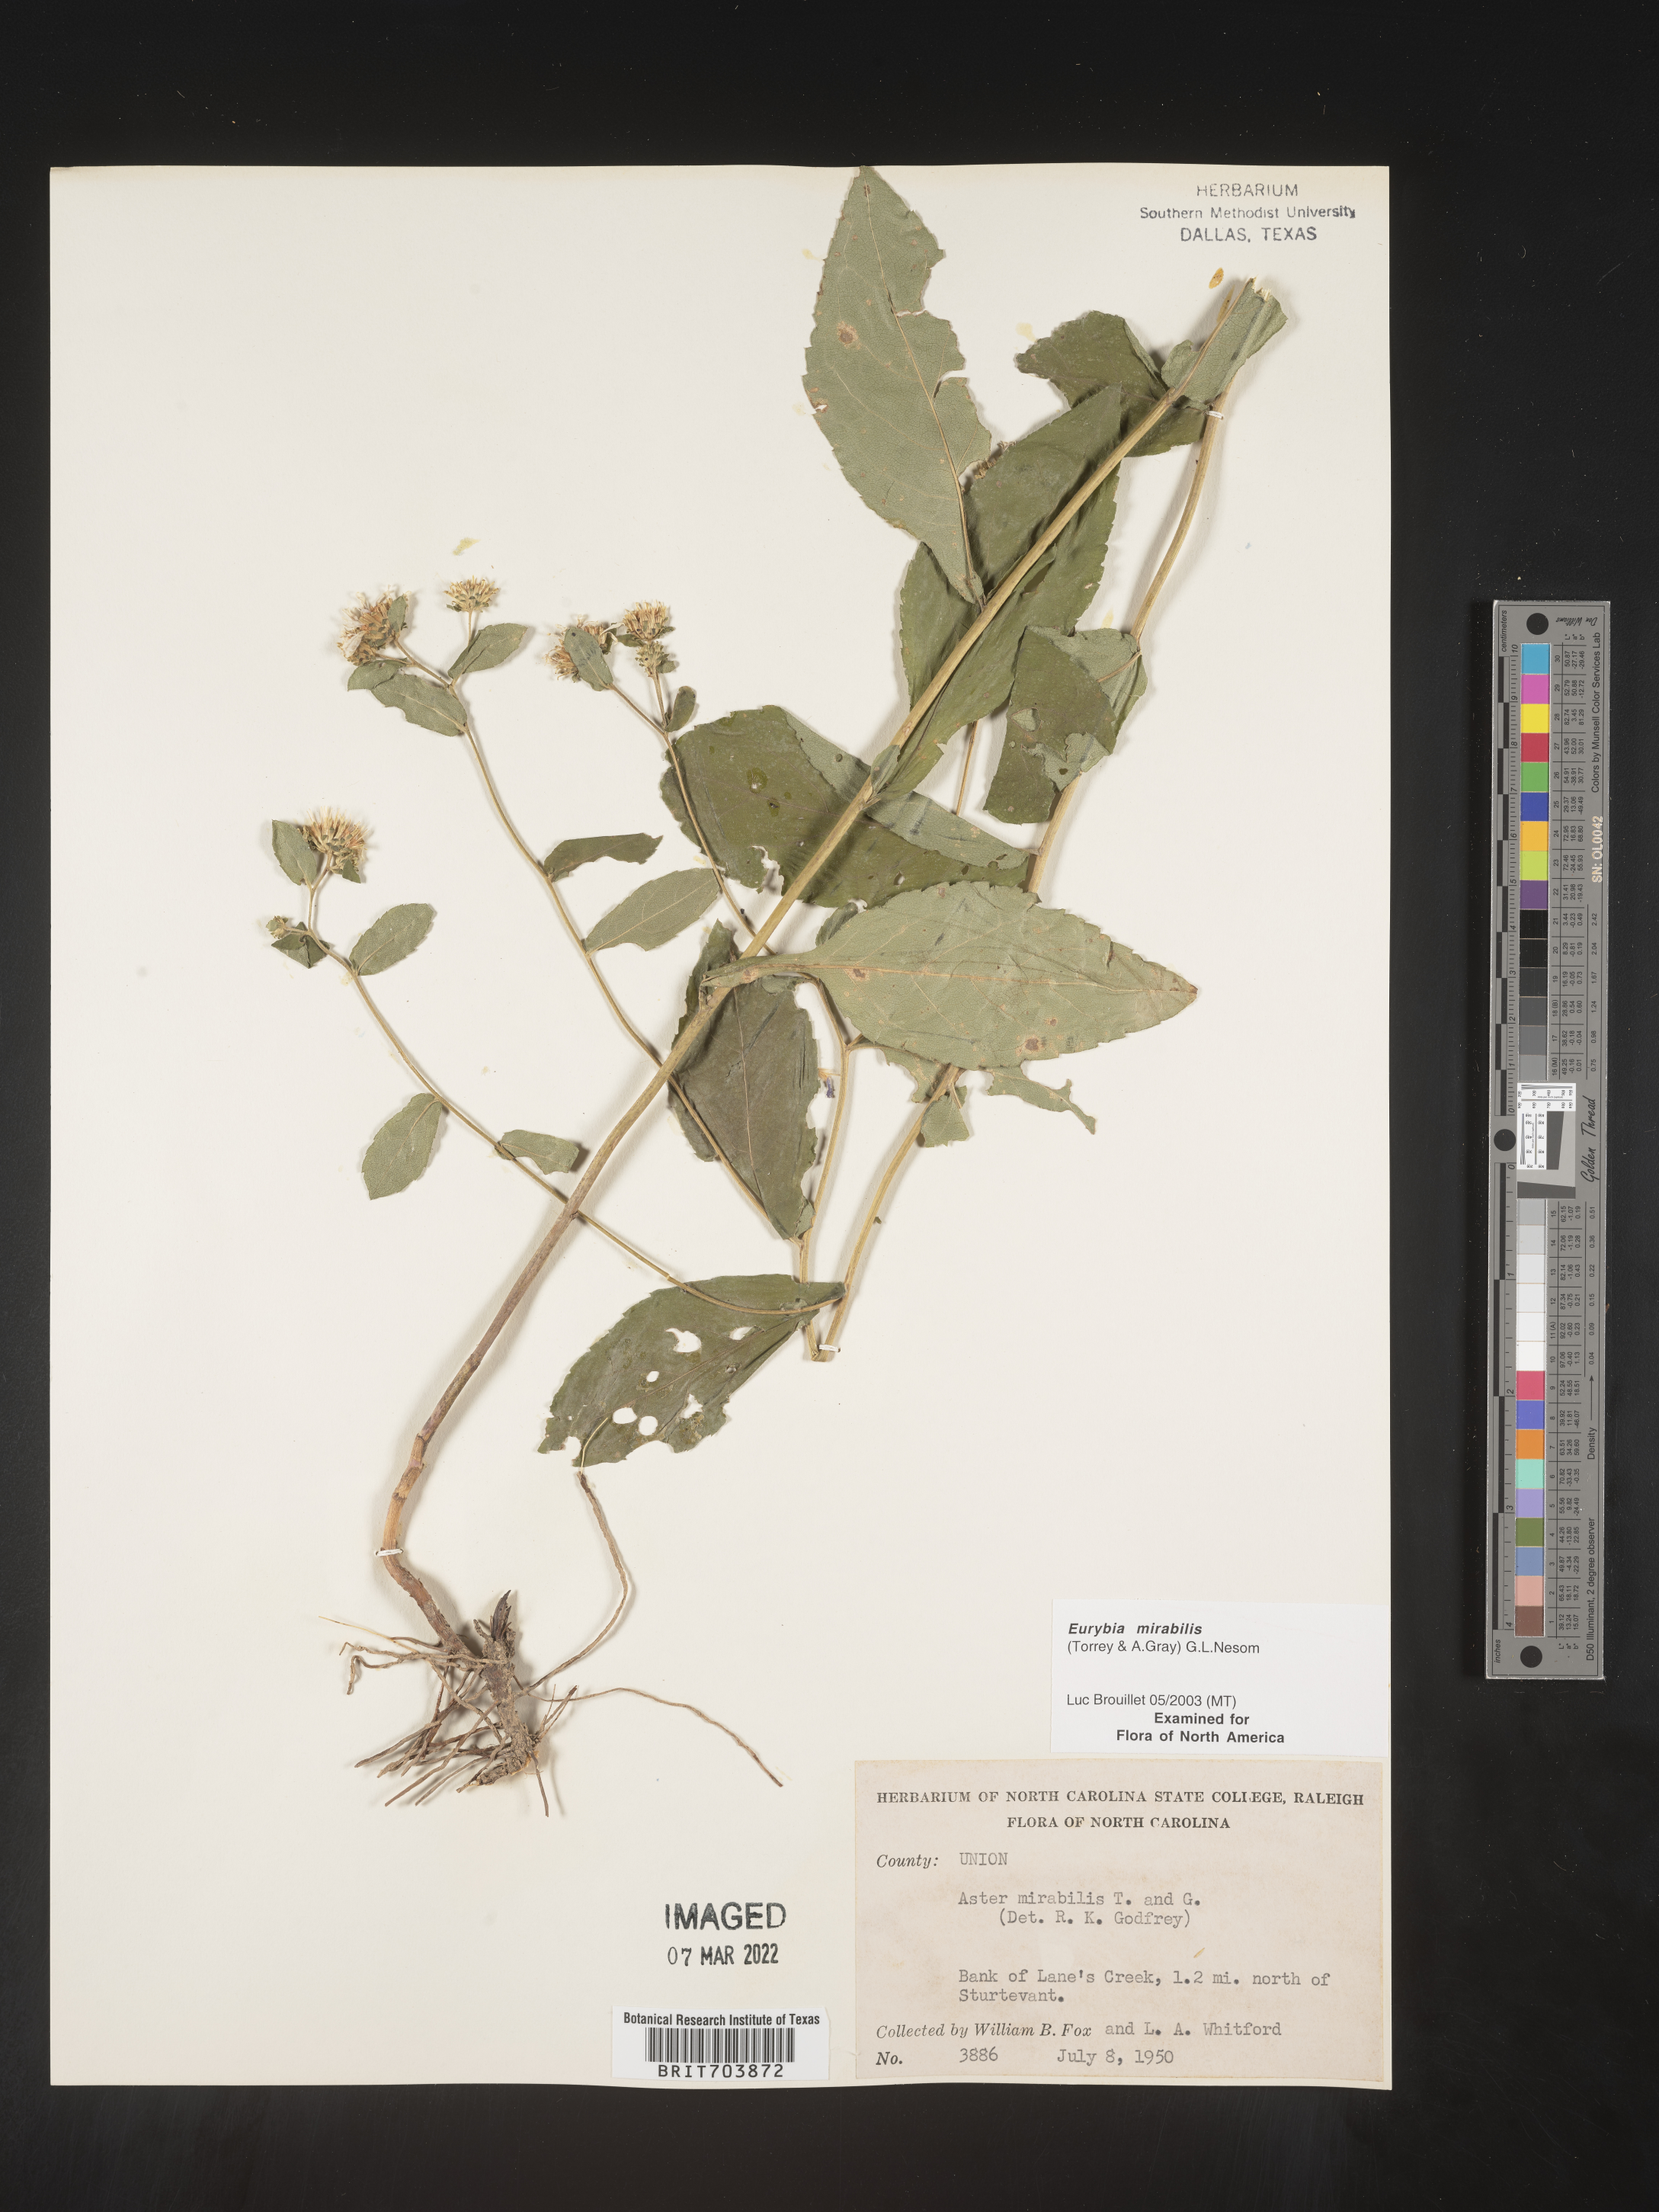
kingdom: Plantae
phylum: Tracheophyta
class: Magnoliopsida
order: Asterales
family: Asteraceae
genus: Eurybia
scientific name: Eurybia mirabilis
